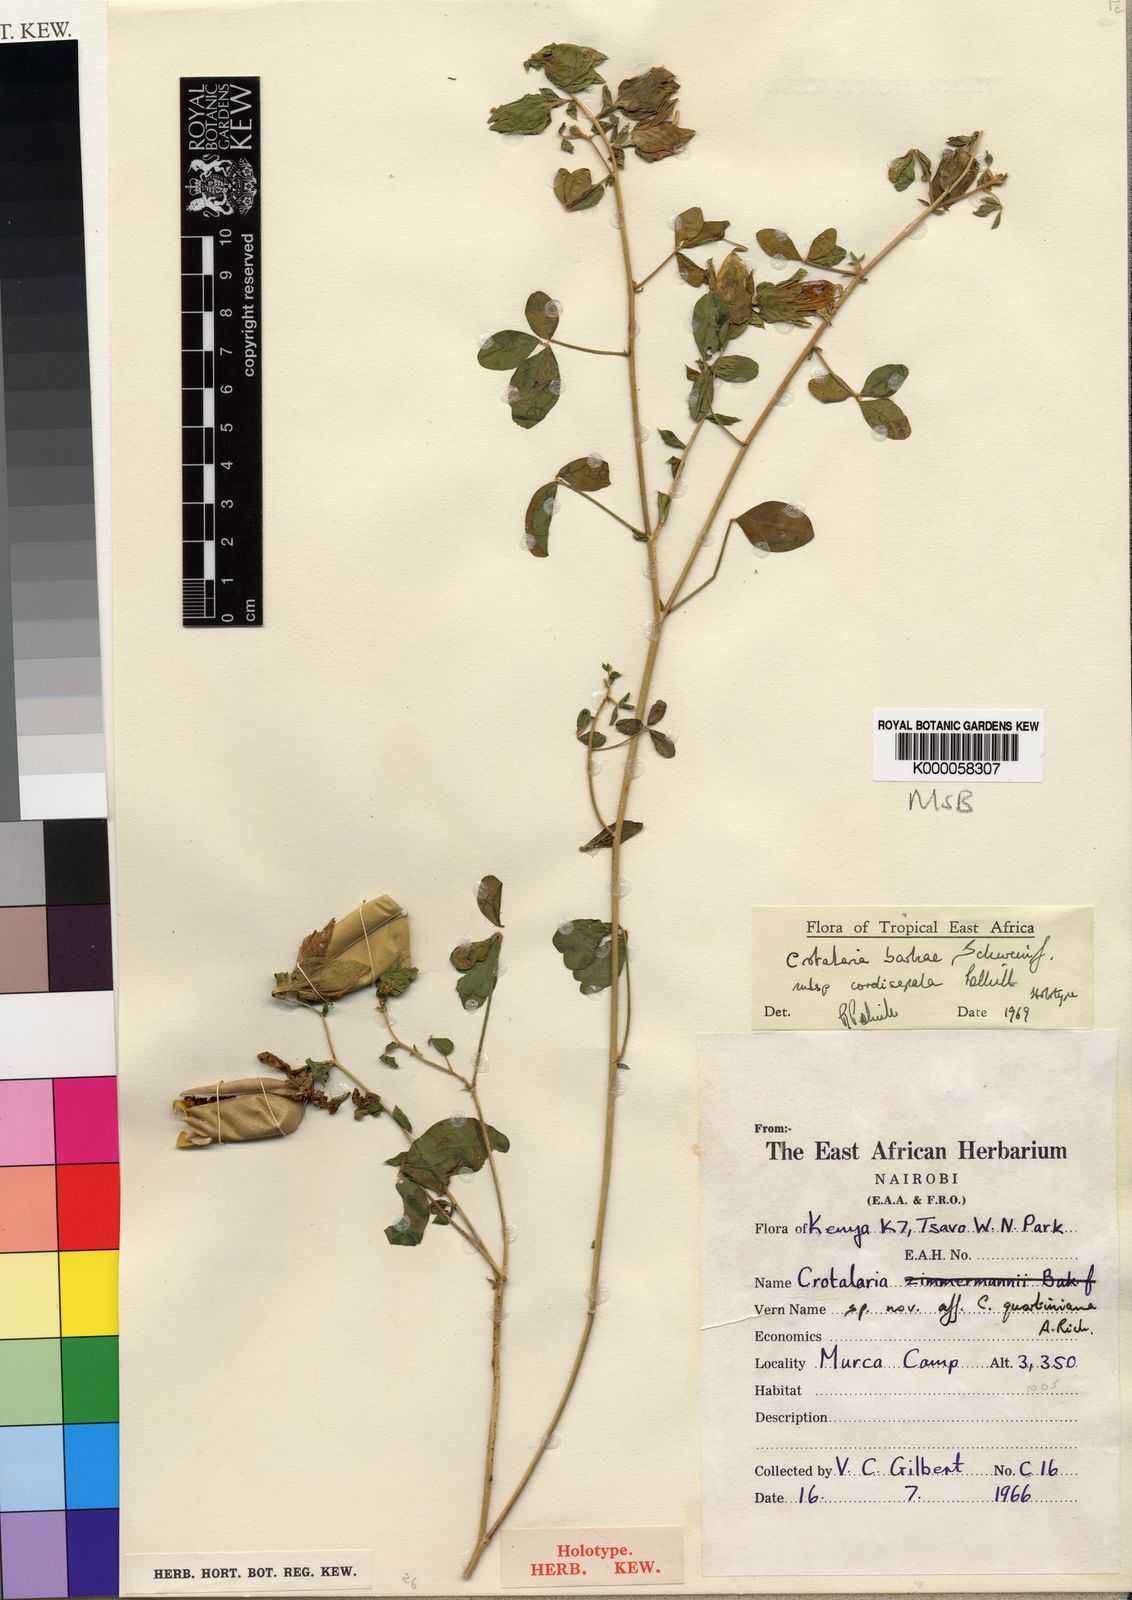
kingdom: Plantae
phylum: Tracheophyta
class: Magnoliopsida
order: Fabales
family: Fabaceae
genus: Crotalaria
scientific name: Crotalaria barkae
